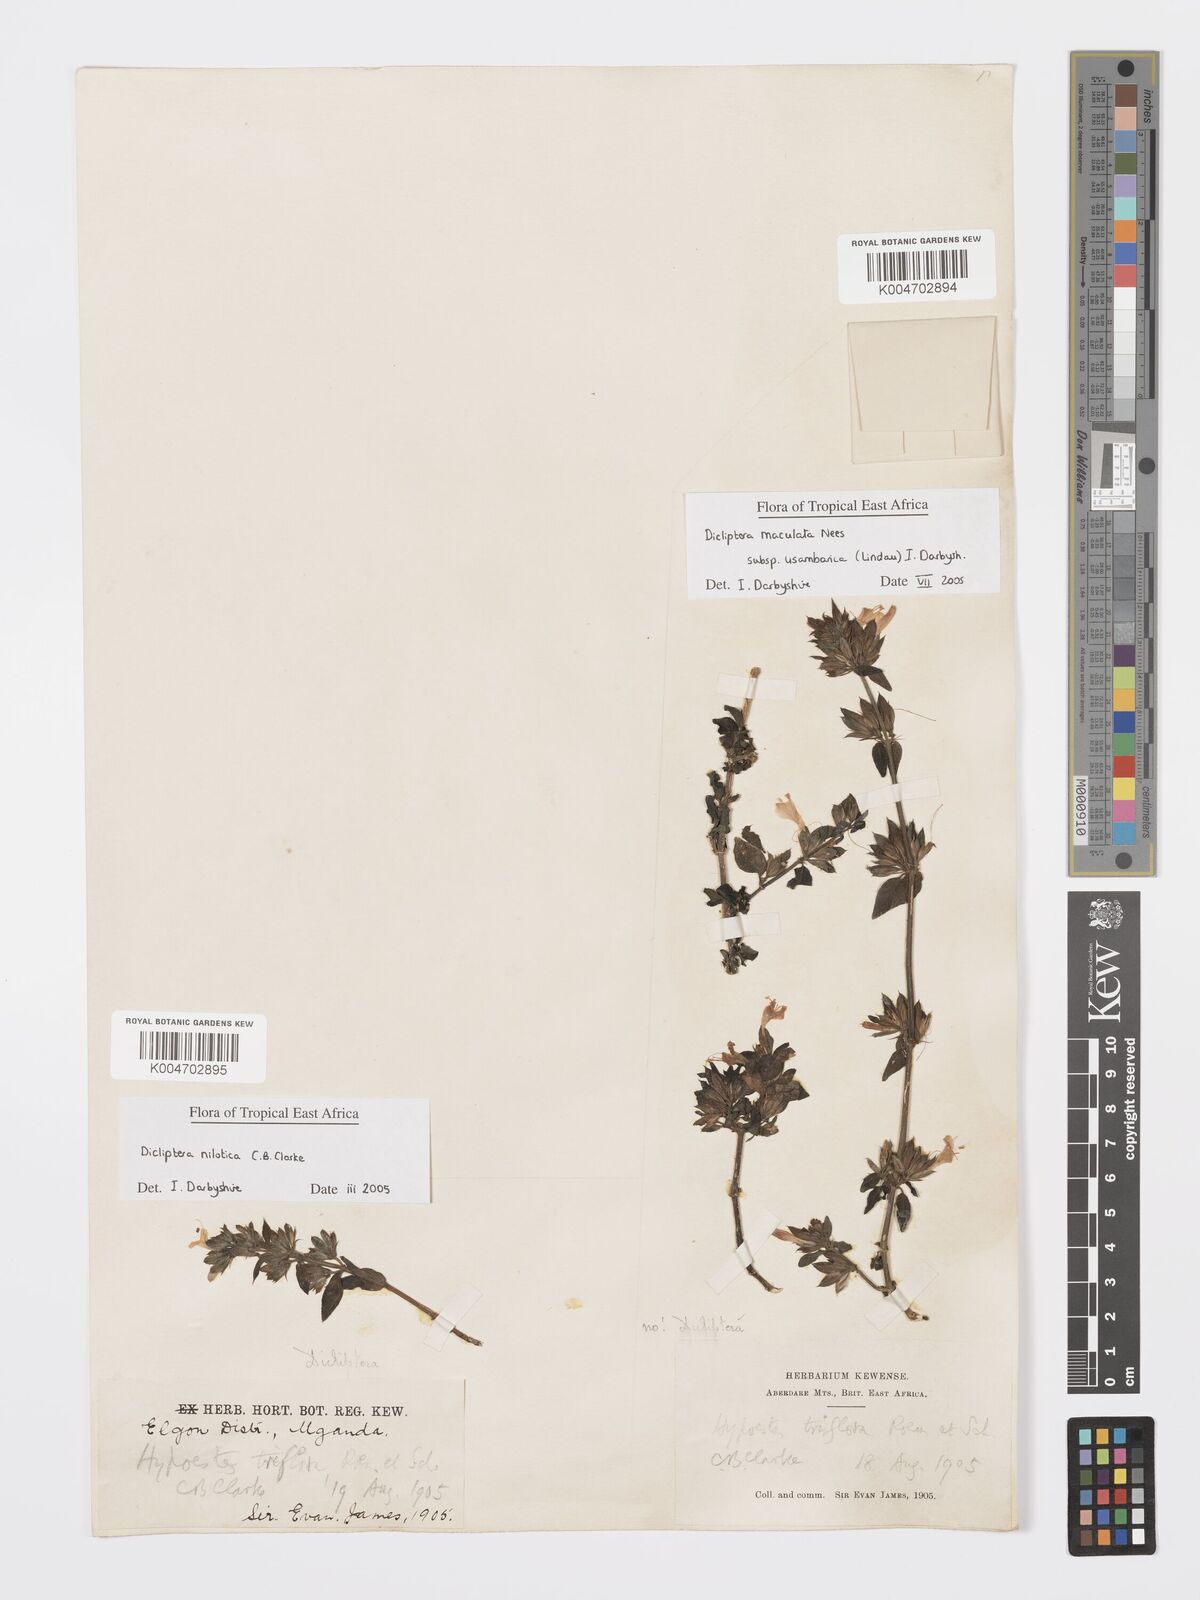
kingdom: Plantae
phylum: Tracheophyta
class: Magnoliopsida
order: Lamiales
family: Acanthaceae
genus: Dicliptera
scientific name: Dicliptera nilotica
